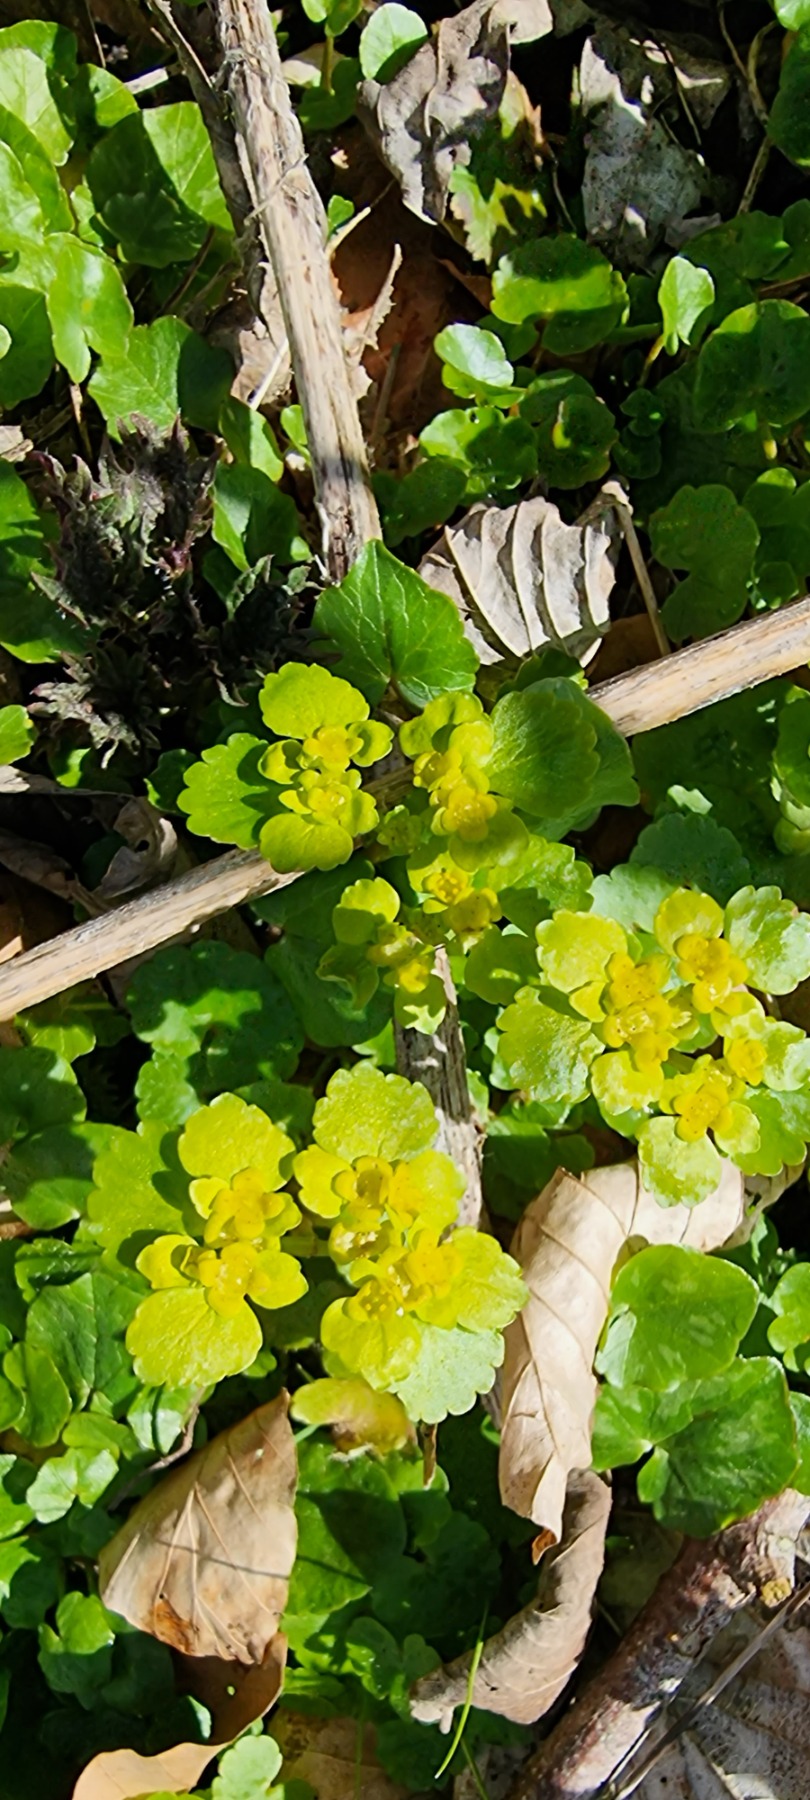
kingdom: Plantae
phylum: Tracheophyta
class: Magnoliopsida
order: Saxifragales
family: Saxifragaceae
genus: Chrysosplenium
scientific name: Chrysosplenium alternifolium
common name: Almindelig milturt
